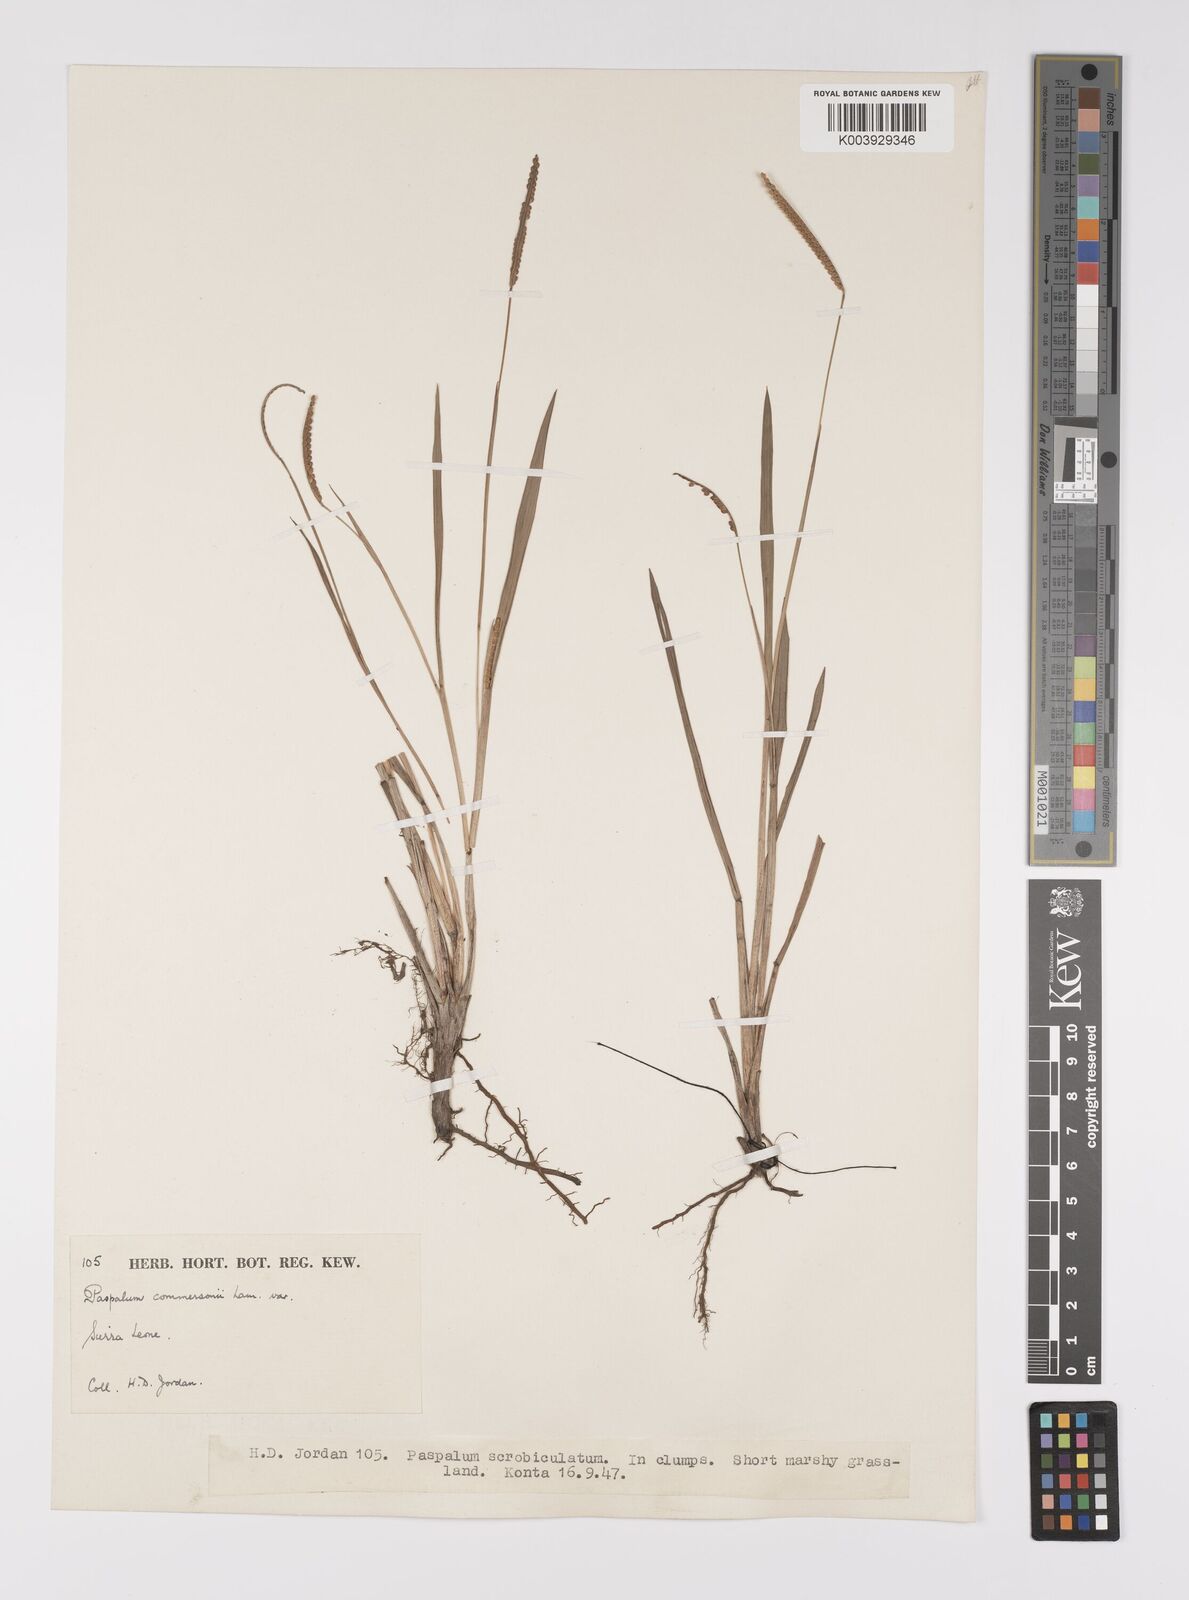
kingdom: Plantae
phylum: Tracheophyta
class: Liliopsida
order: Poales
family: Poaceae
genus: Paspalum
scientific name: Paspalum scrobiculatum
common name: Kodo millet
